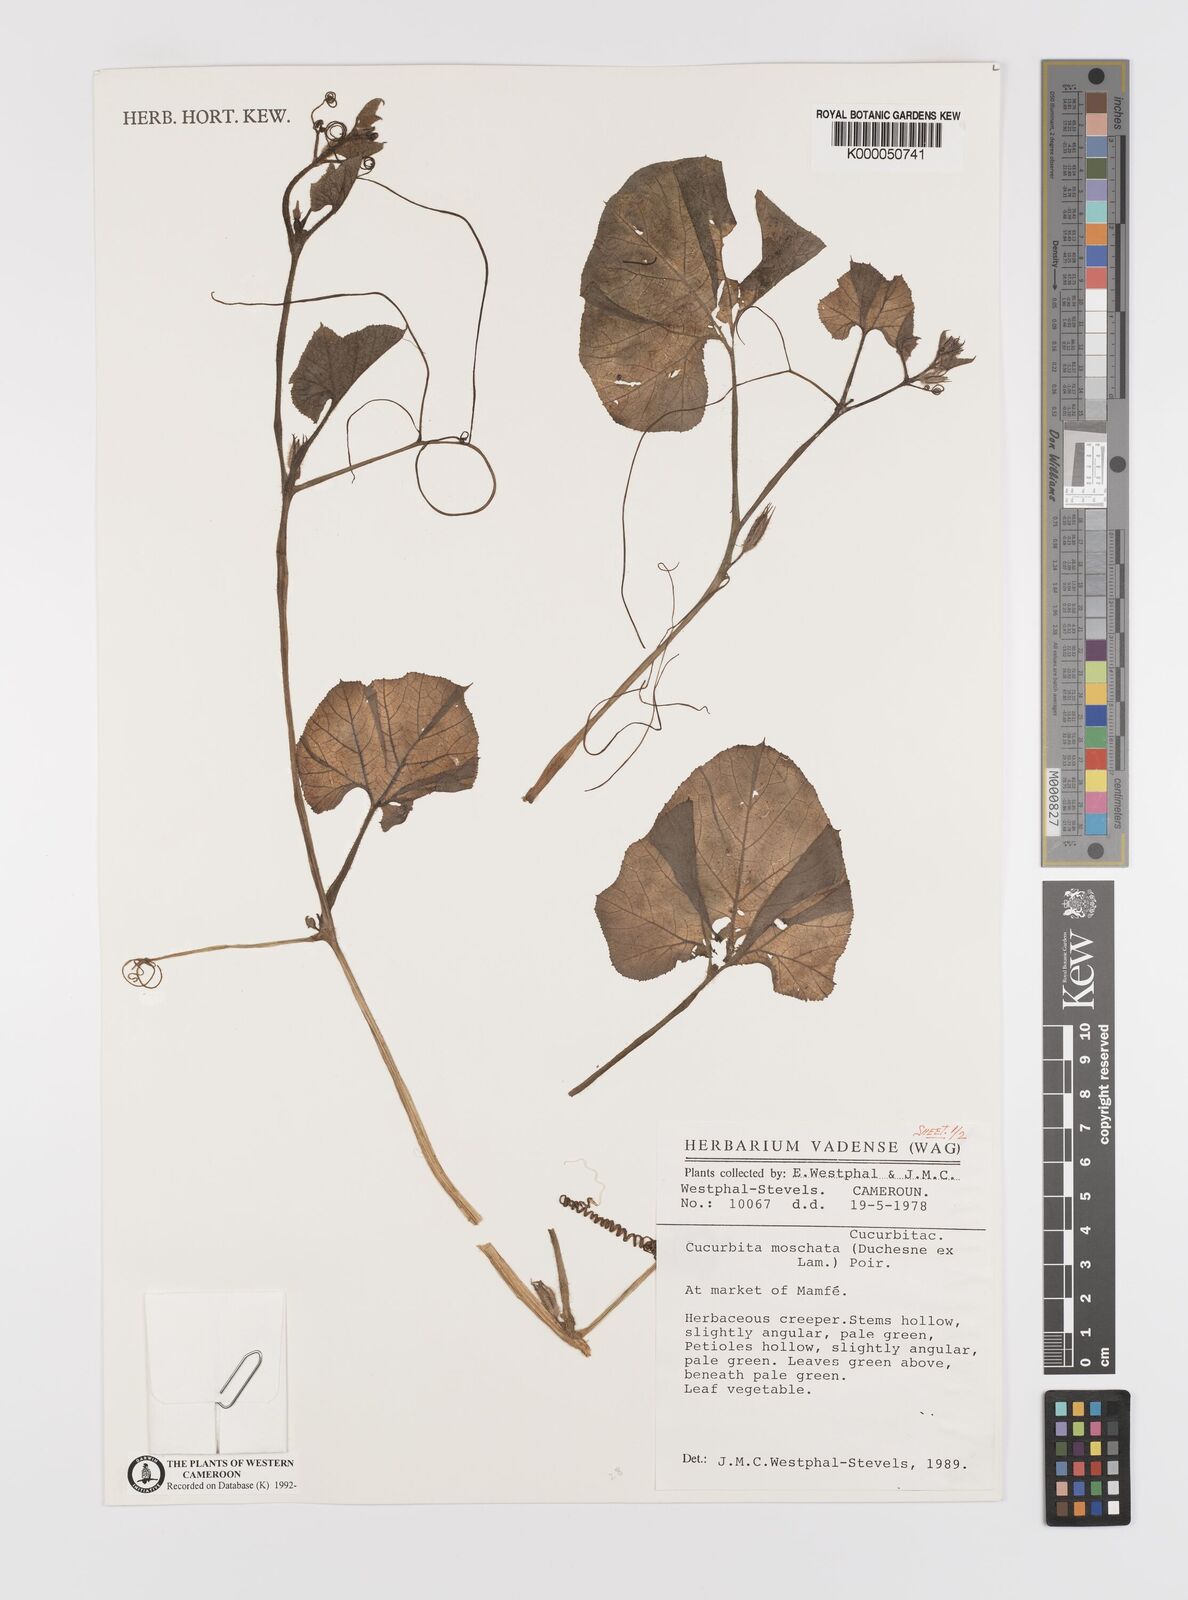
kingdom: Plantae
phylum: Tracheophyta
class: Magnoliopsida
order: Cucurbitales
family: Cucurbitaceae
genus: Cucurbita
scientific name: Cucurbita
